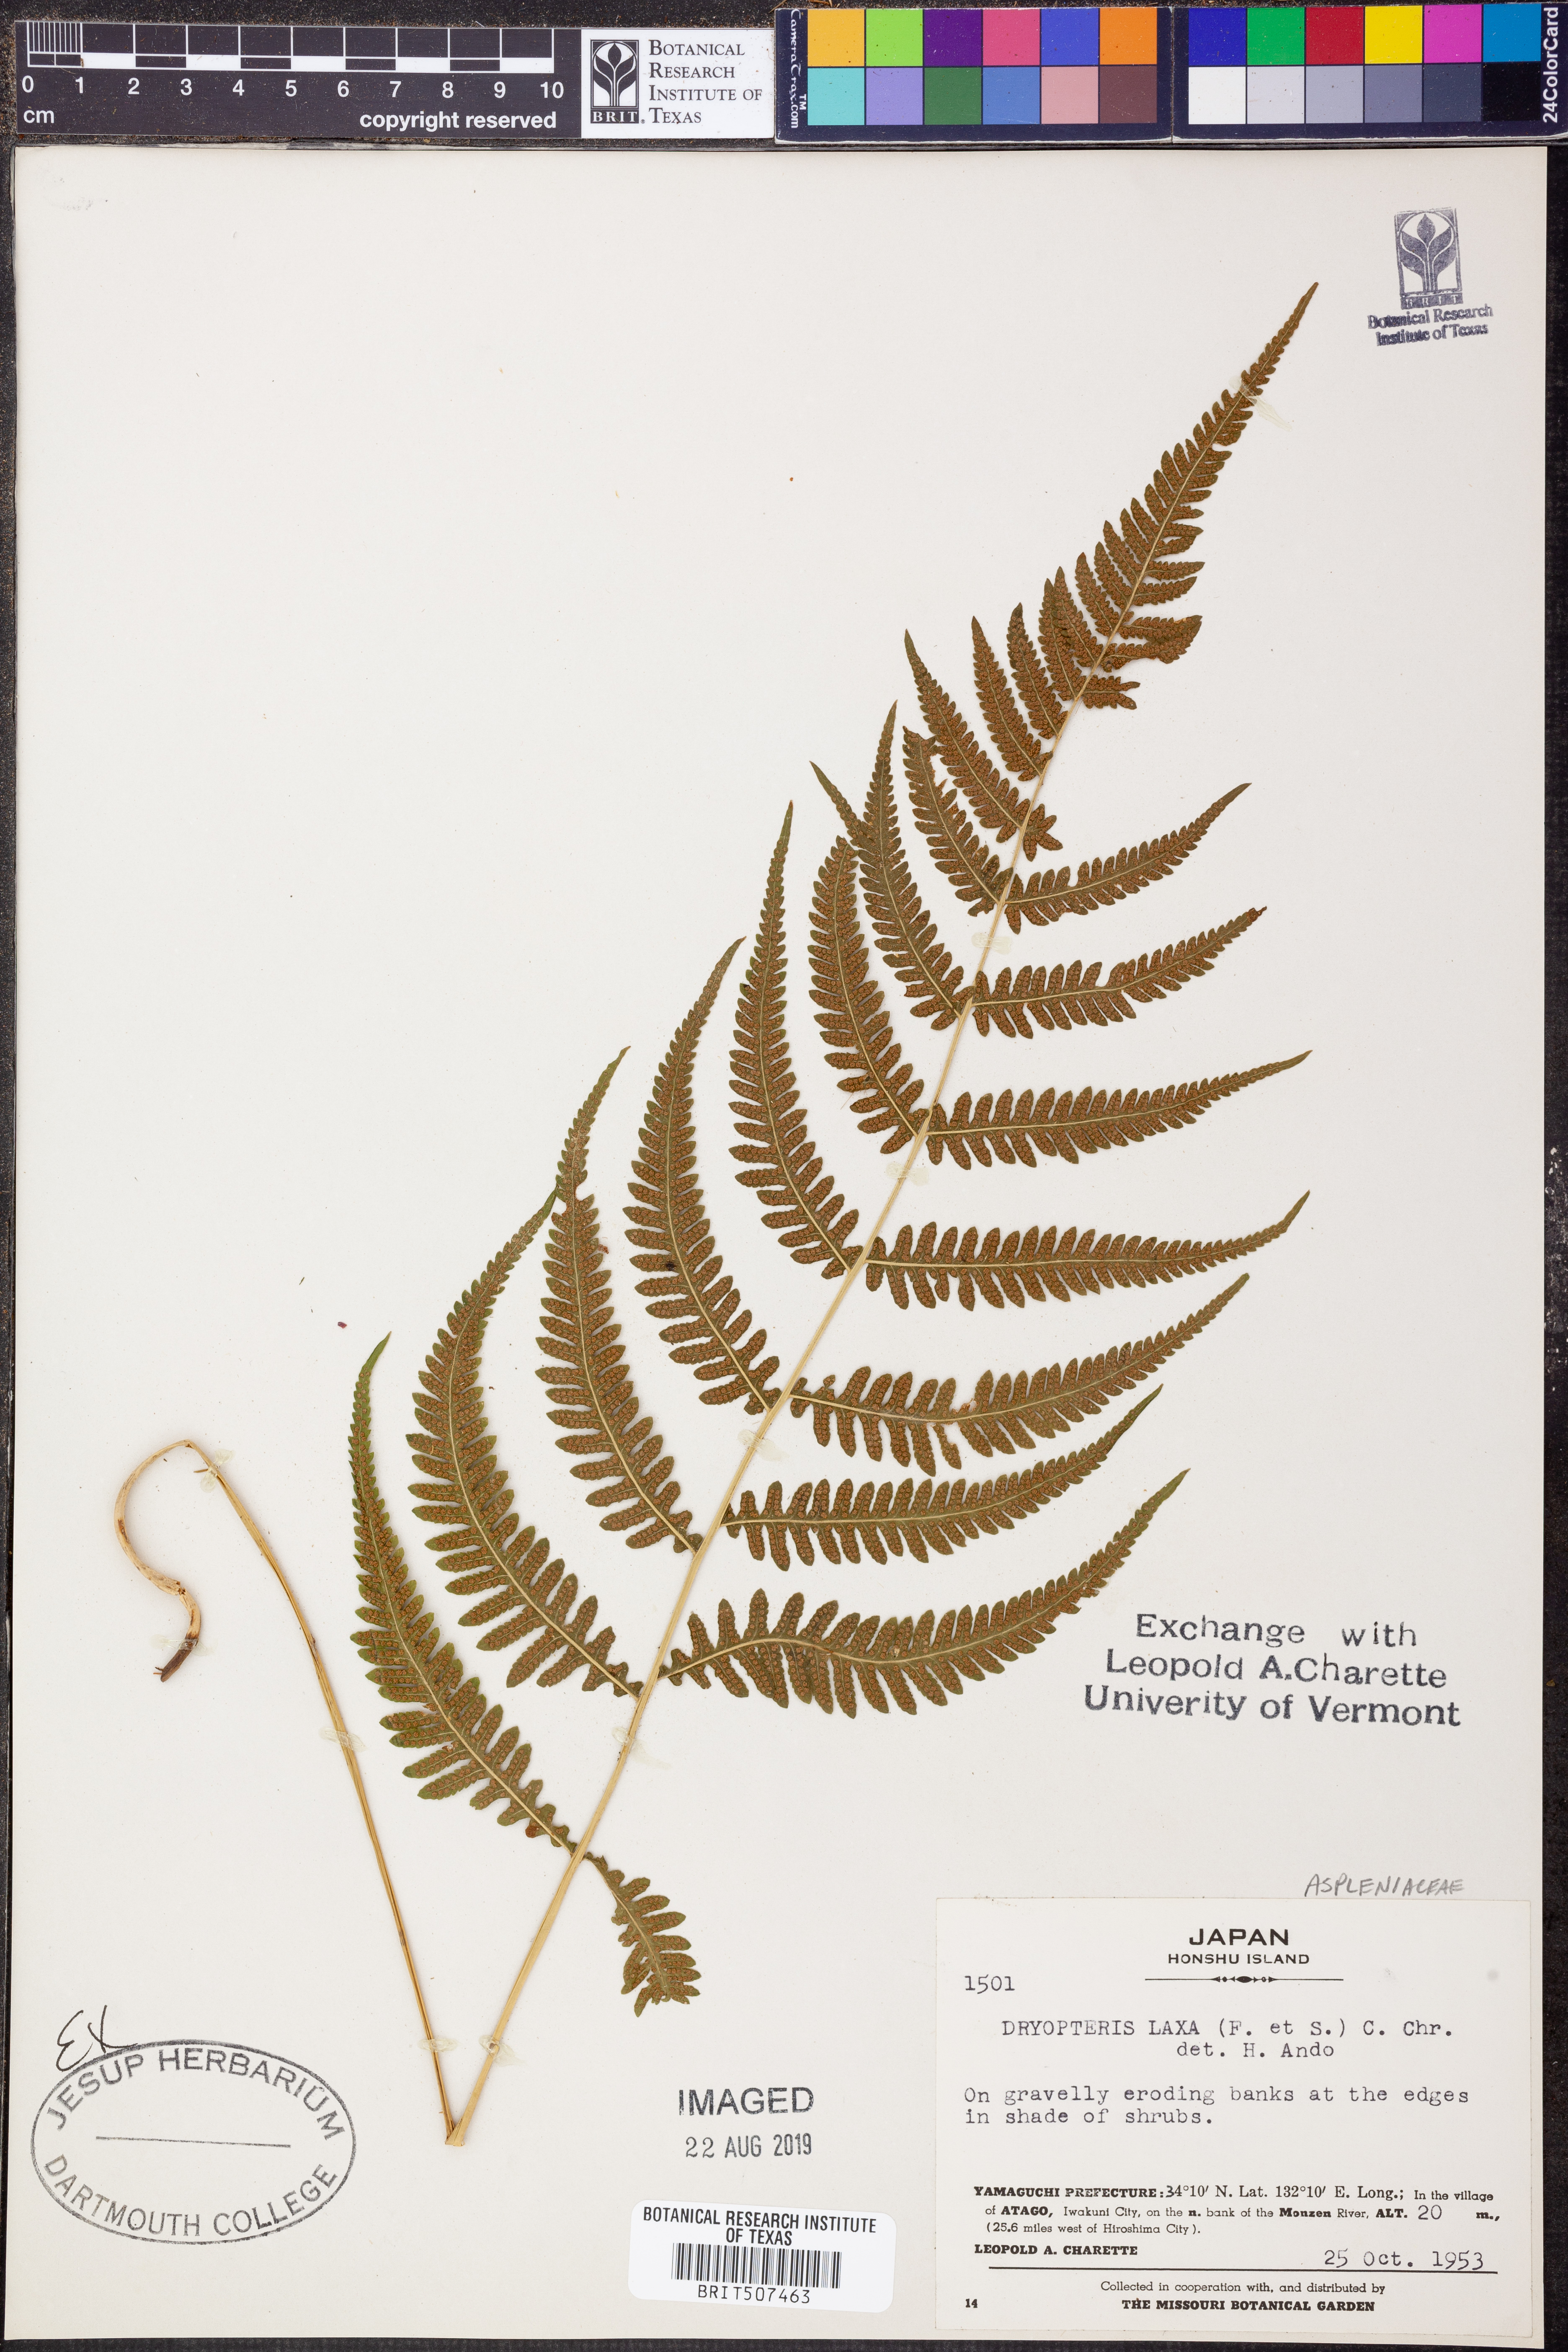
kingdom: Plantae
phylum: Tracheophyta
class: Polypodiopsida
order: Polypodiales
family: Thelypteridaceae
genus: Metathelypteris
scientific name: Metathelypteris laxa
